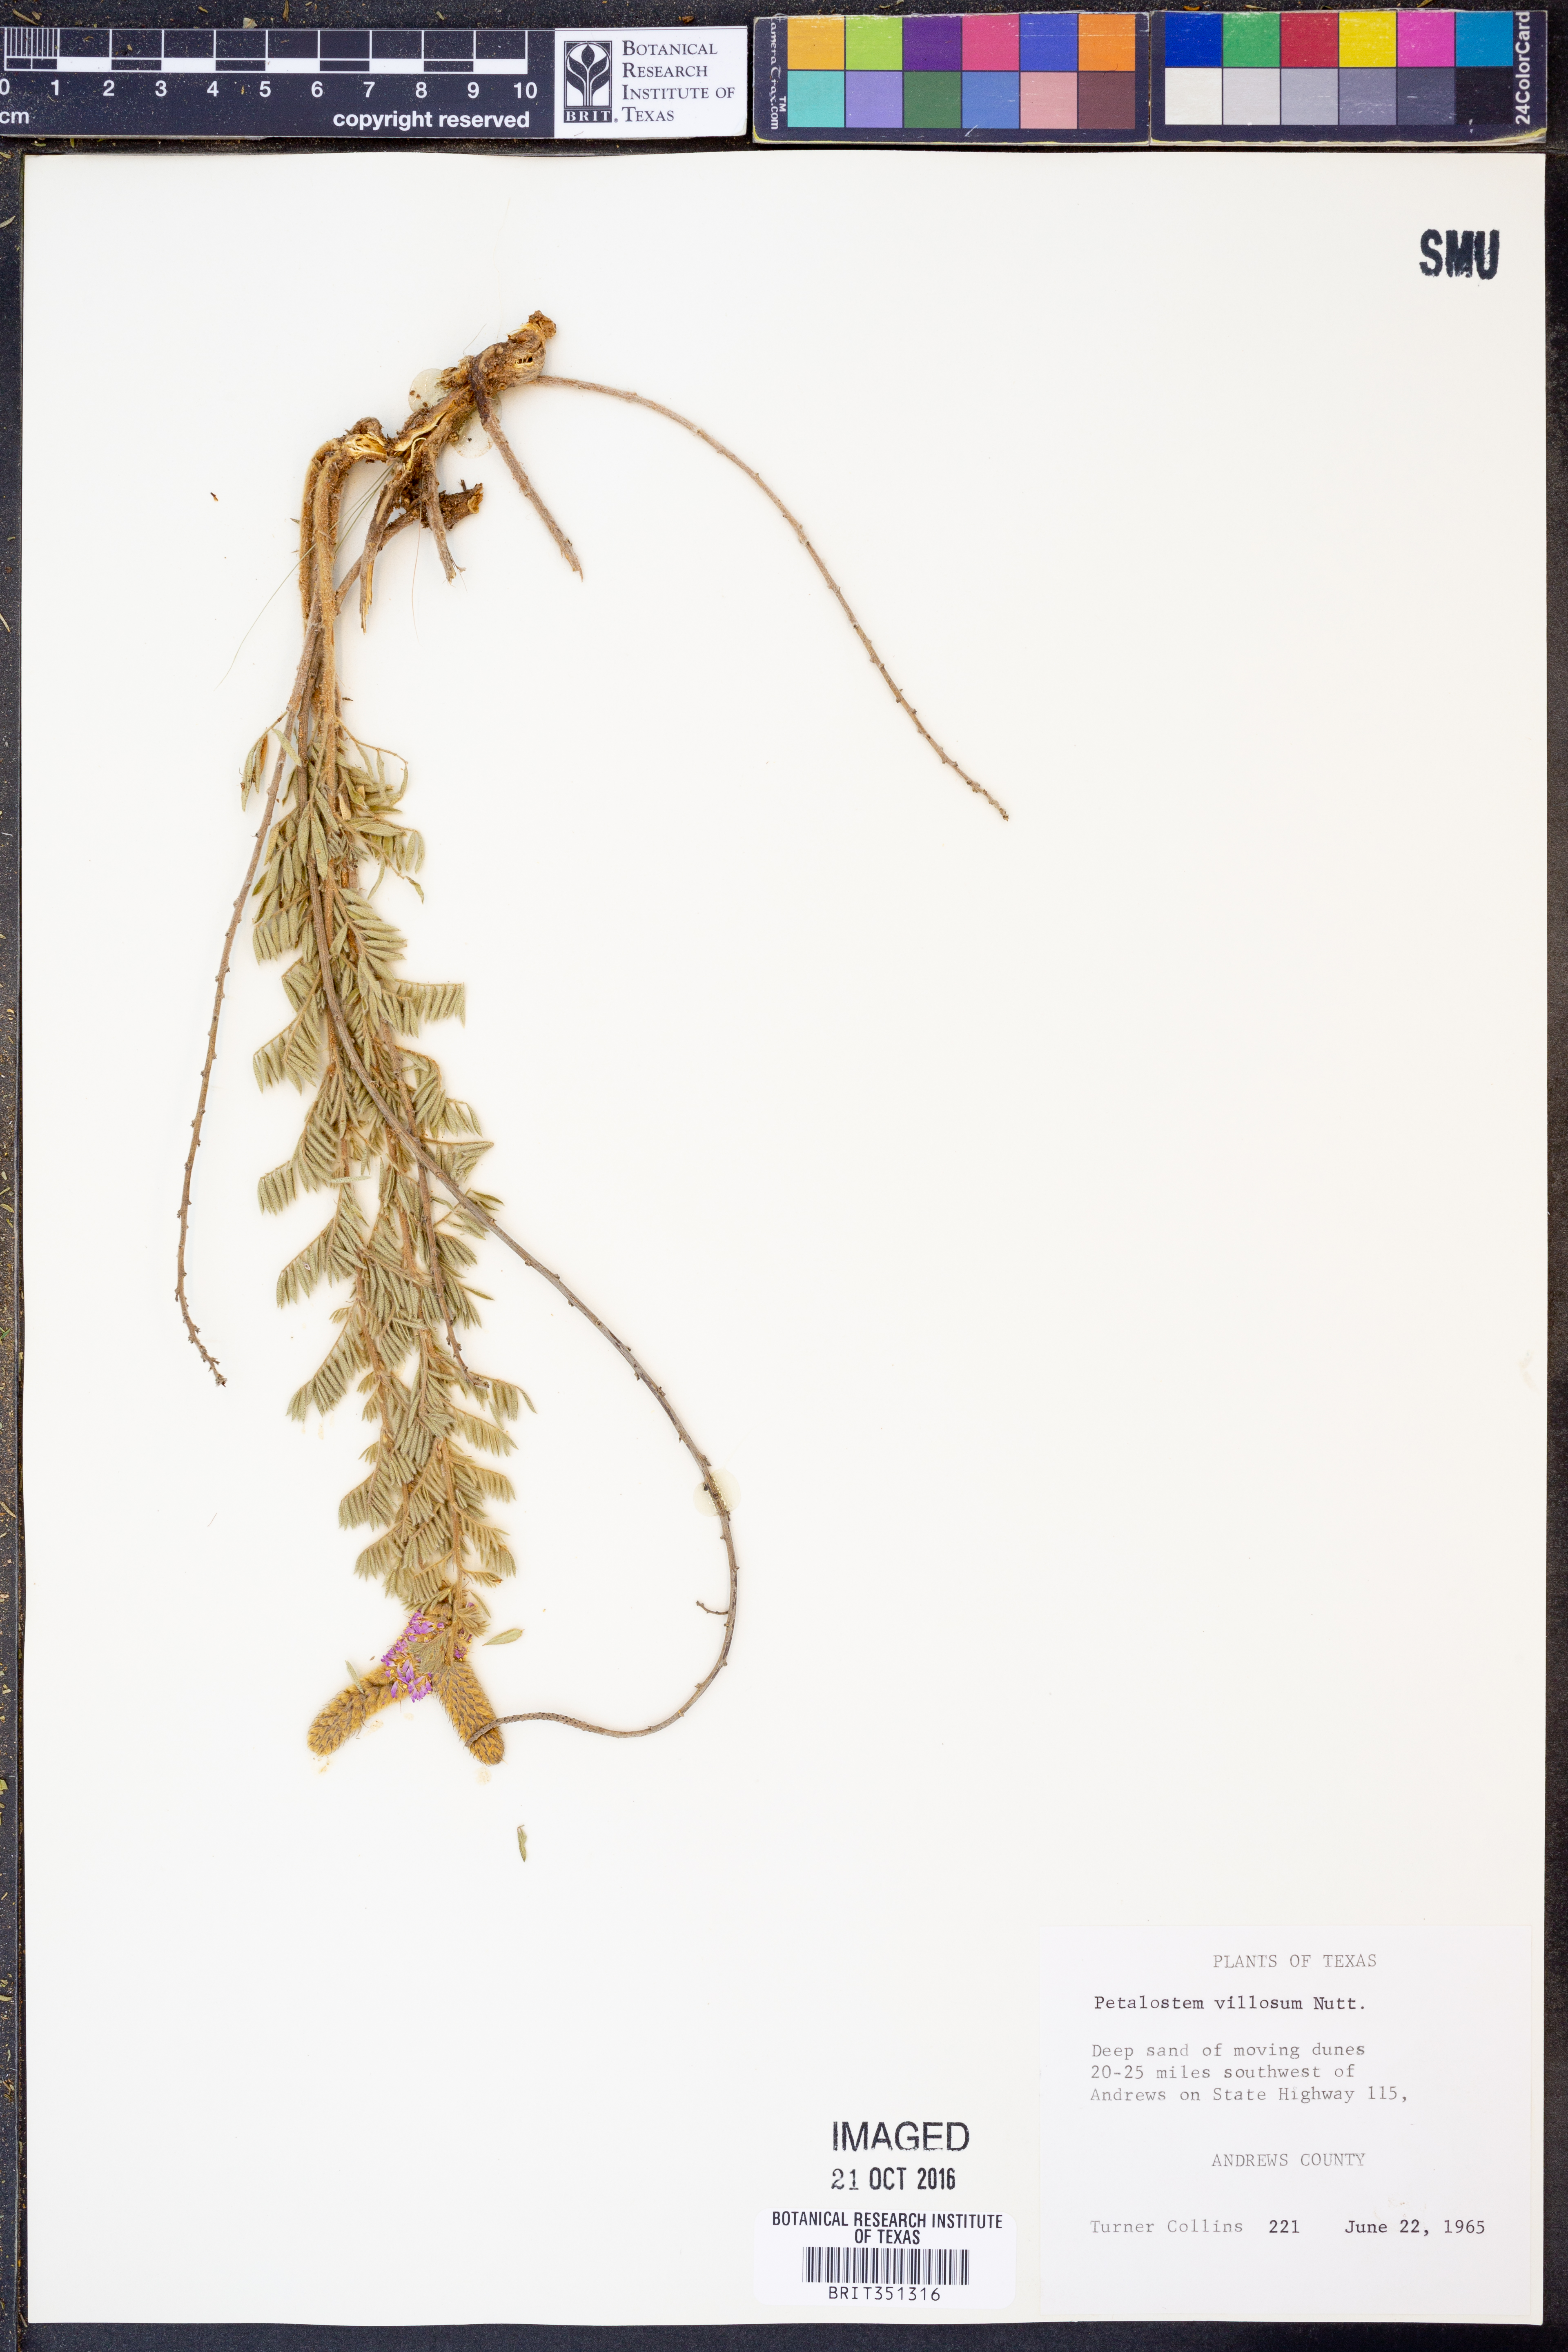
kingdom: Plantae
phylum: Tracheophyta
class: Magnoliopsida
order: Fabales
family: Fabaceae
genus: Dalea
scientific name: Dalea villosa
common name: Silky prairie-clover
